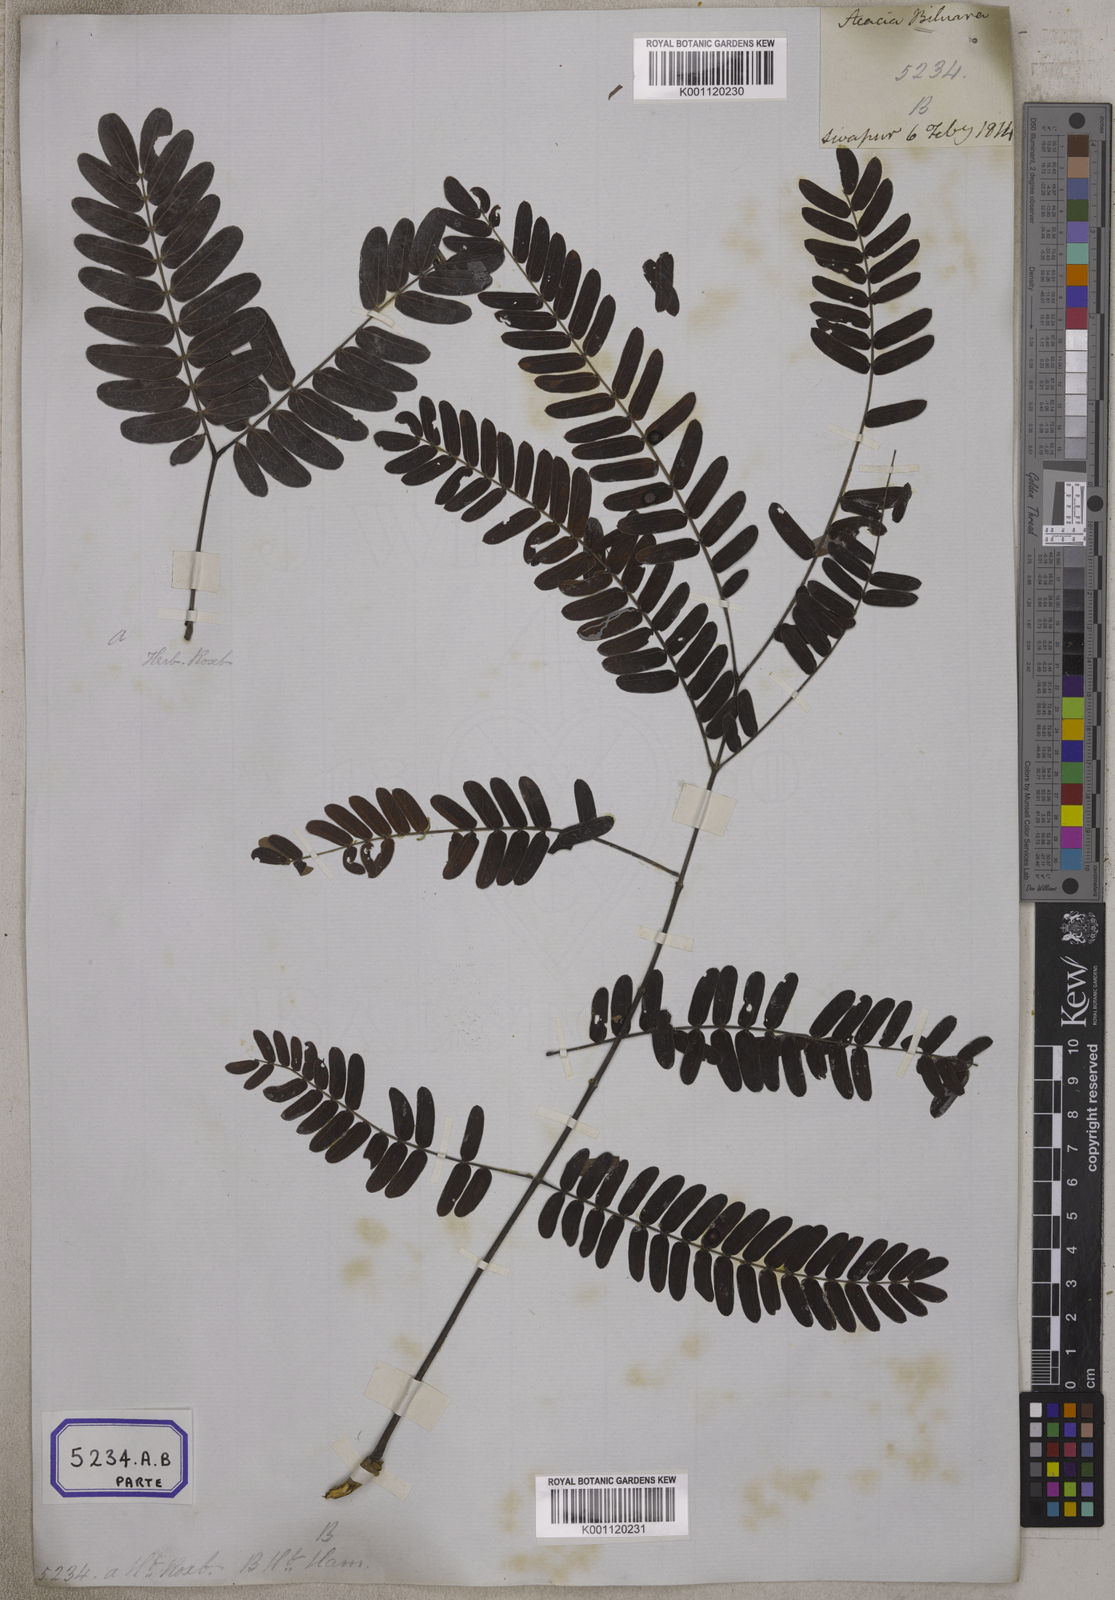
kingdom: Plantae
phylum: Tracheophyta
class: Magnoliopsida
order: Fabales
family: Fabaceae
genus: Albizia
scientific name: Albizia odoratissima
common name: Ceylon rosewood
